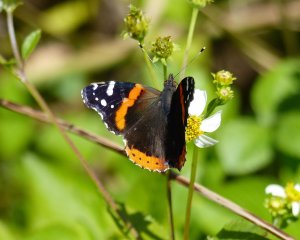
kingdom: Animalia
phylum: Arthropoda
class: Insecta
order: Lepidoptera
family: Nymphalidae
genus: Vanessa
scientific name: Vanessa atalanta
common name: Red Admiral
